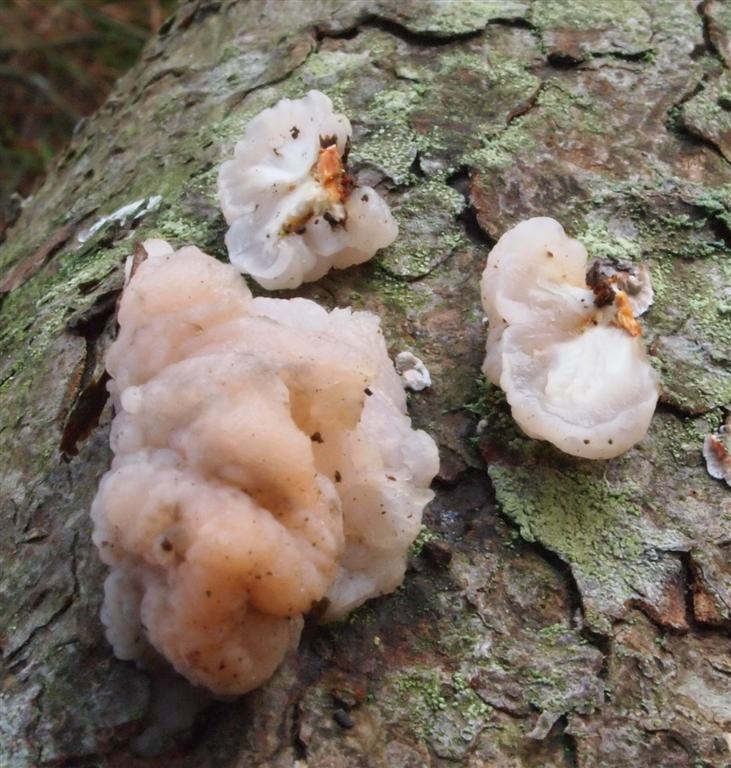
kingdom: Fungi
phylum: Basidiomycota
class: Tremellomycetes
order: Tremellales
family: Naemateliaceae
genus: Naematelia
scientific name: Naematelia encephala
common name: fyrre-bævresvamp
